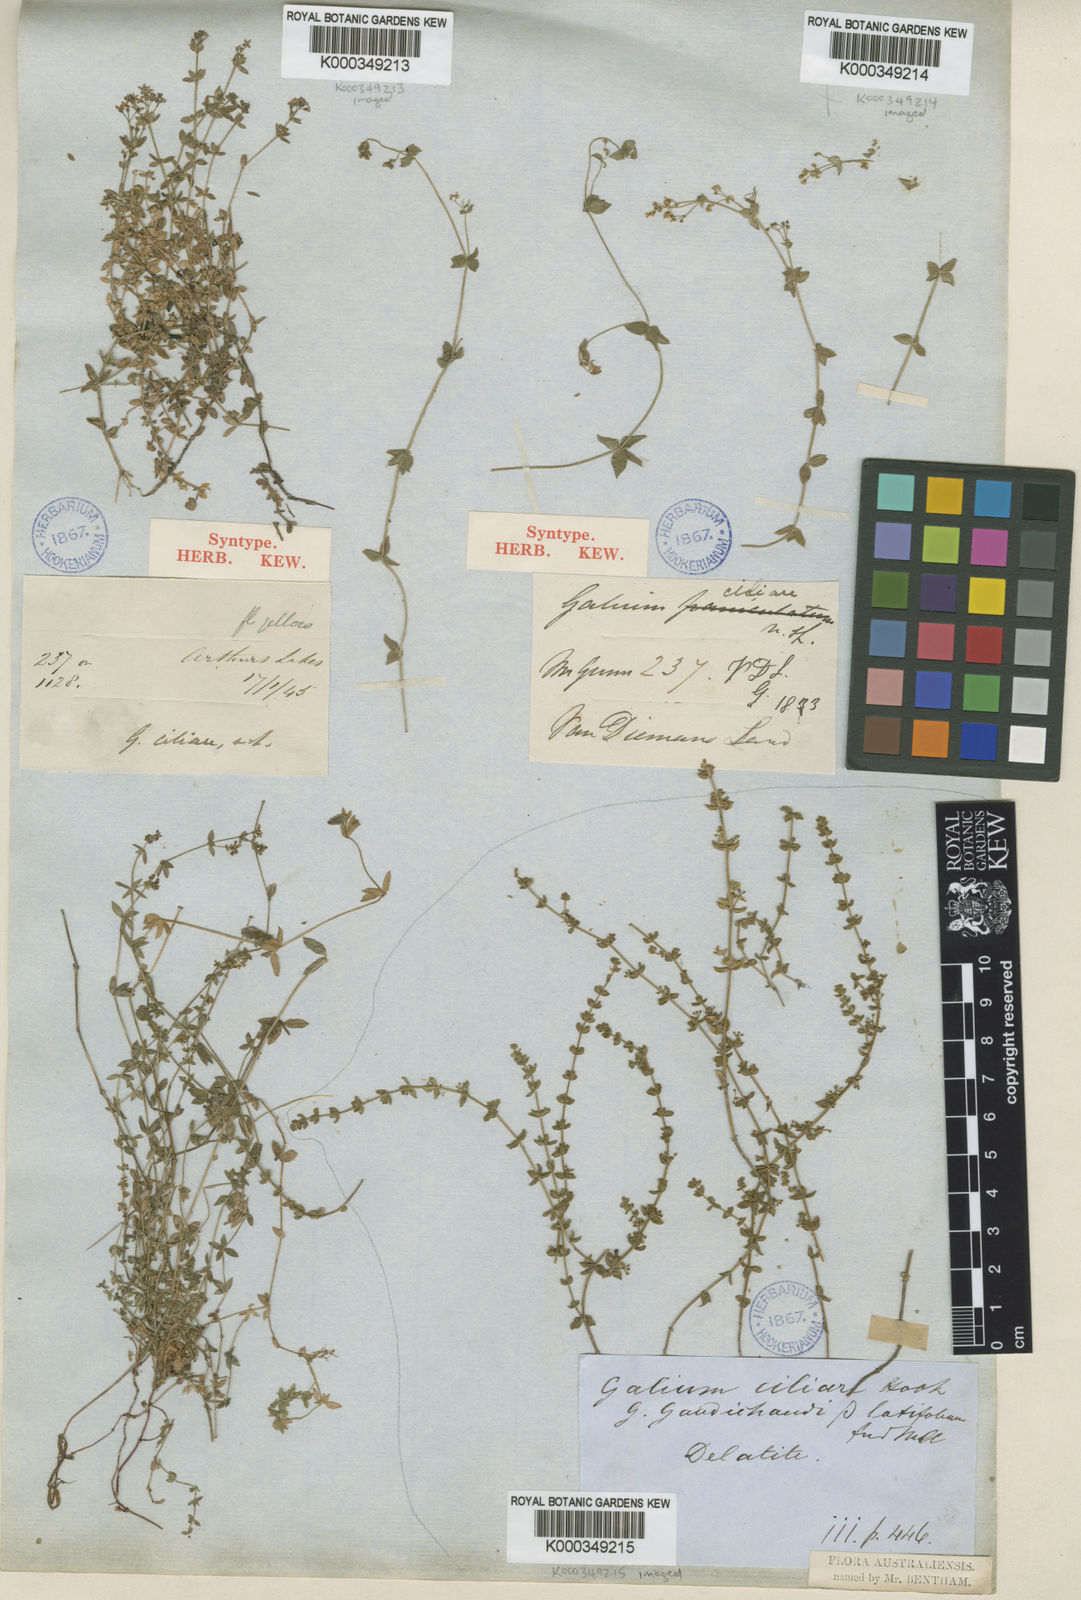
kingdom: Plantae
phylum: Tracheophyta
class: Magnoliopsida
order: Gentianales
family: Rubiaceae
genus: Galium
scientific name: Galium ciliare
